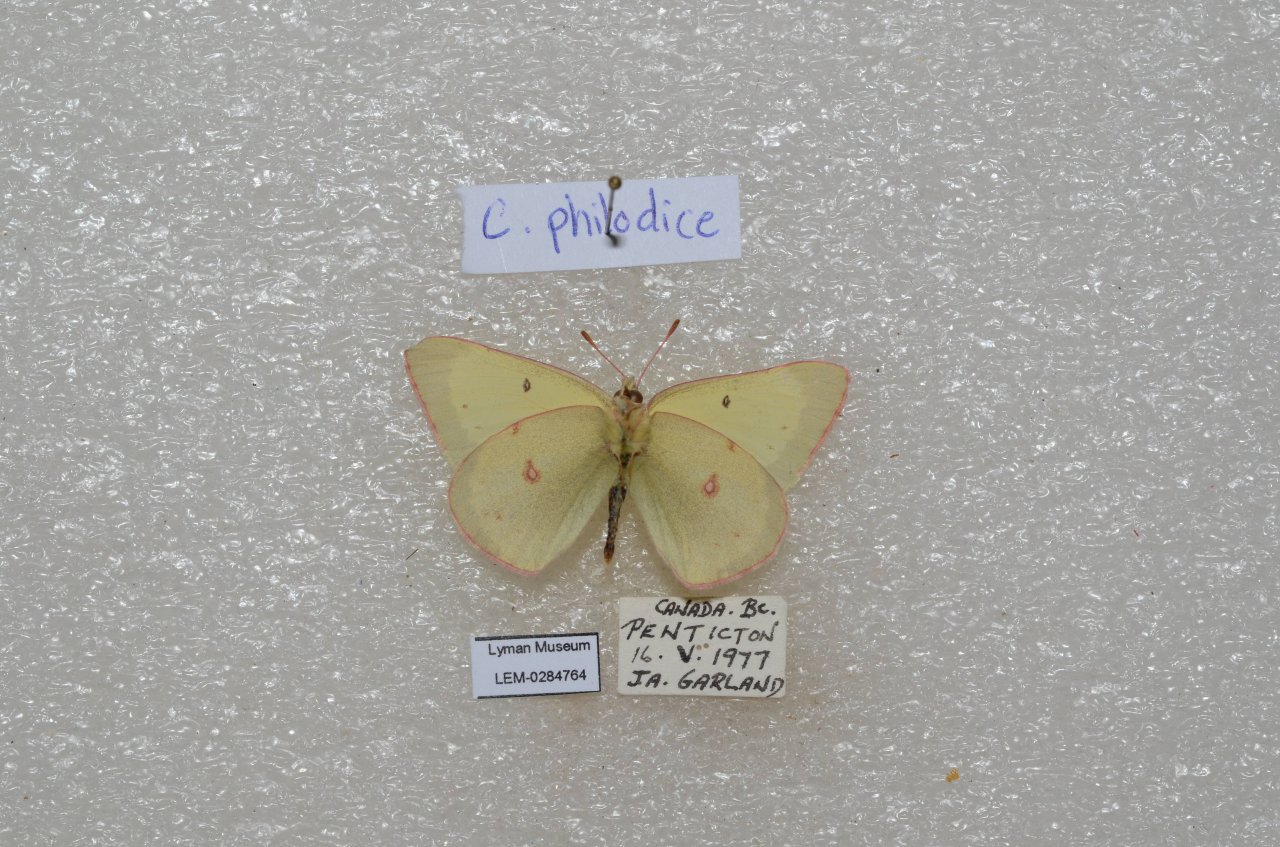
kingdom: Animalia
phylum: Arthropoda
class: Insecta
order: Lepidoptera
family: Pieridae
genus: Colias
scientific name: Colias philodice
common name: Clouded Sulphur
